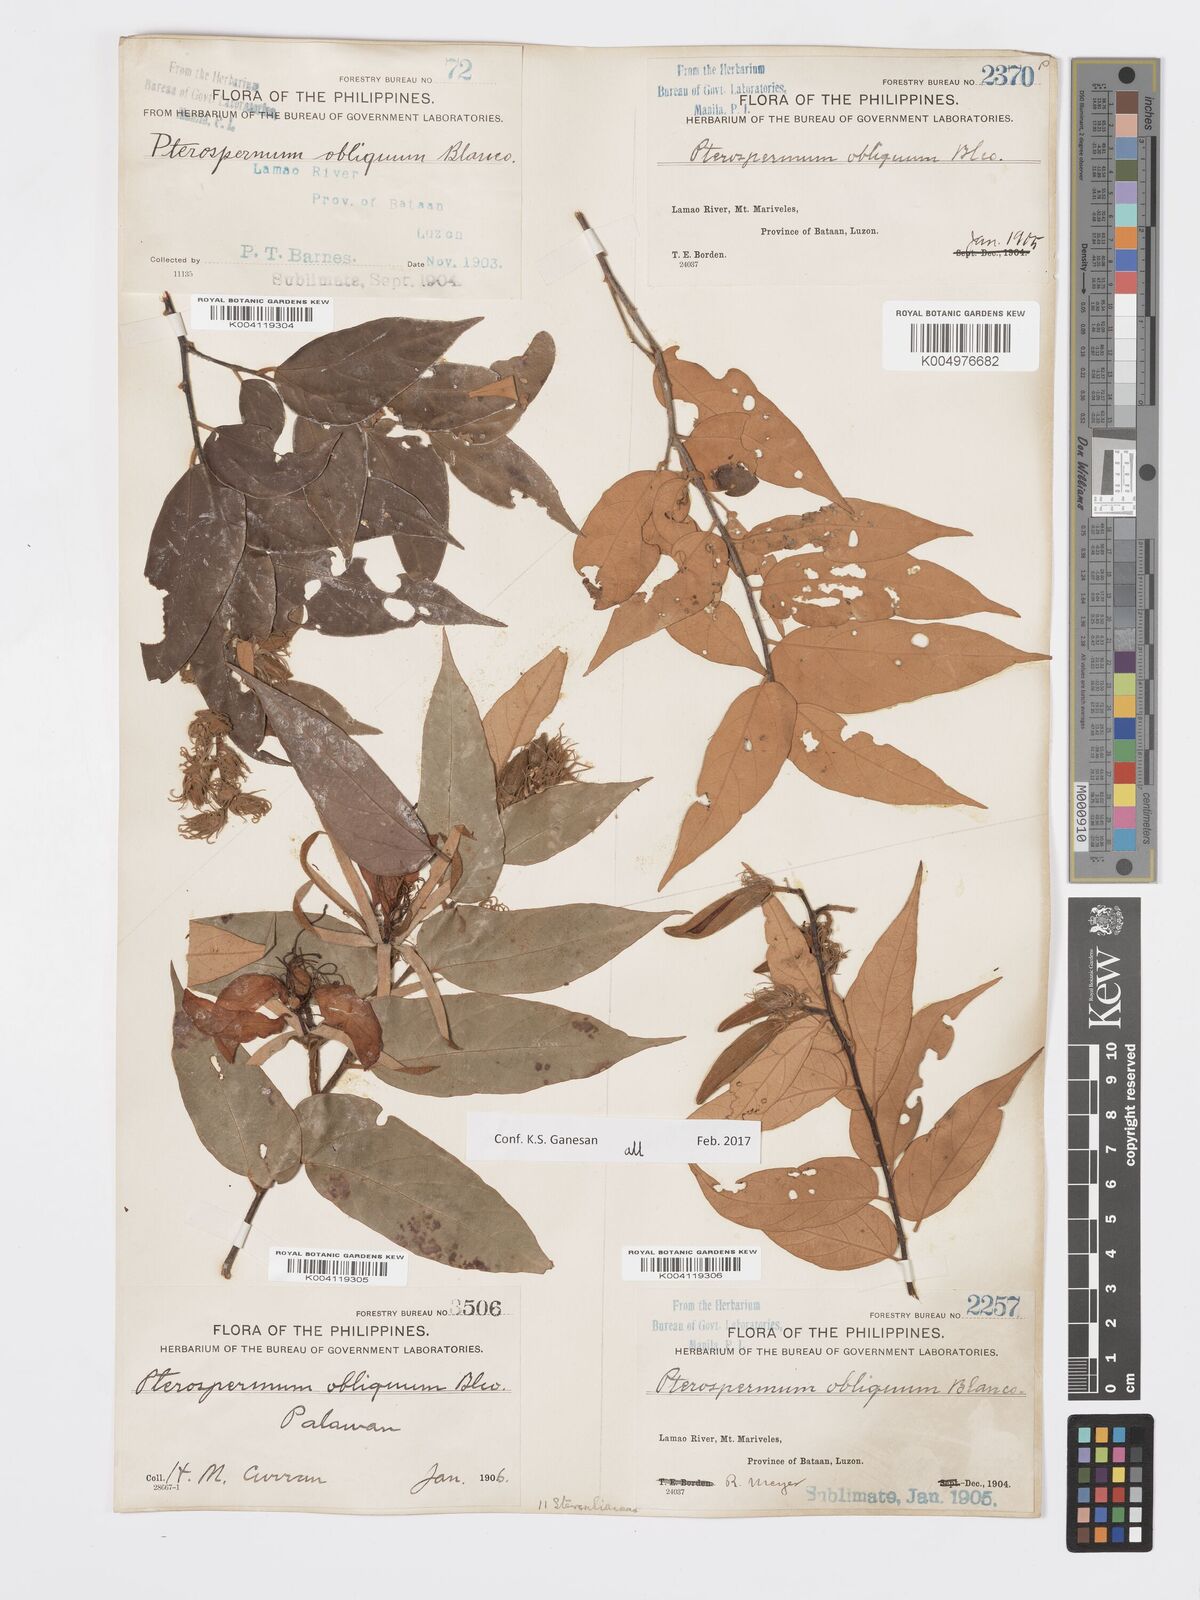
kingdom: Plantae
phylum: Tracheophyta
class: Magnoliopsida
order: Malvales
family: Malvaceae
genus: Pterospermum
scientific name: Pterospermum obliquum
